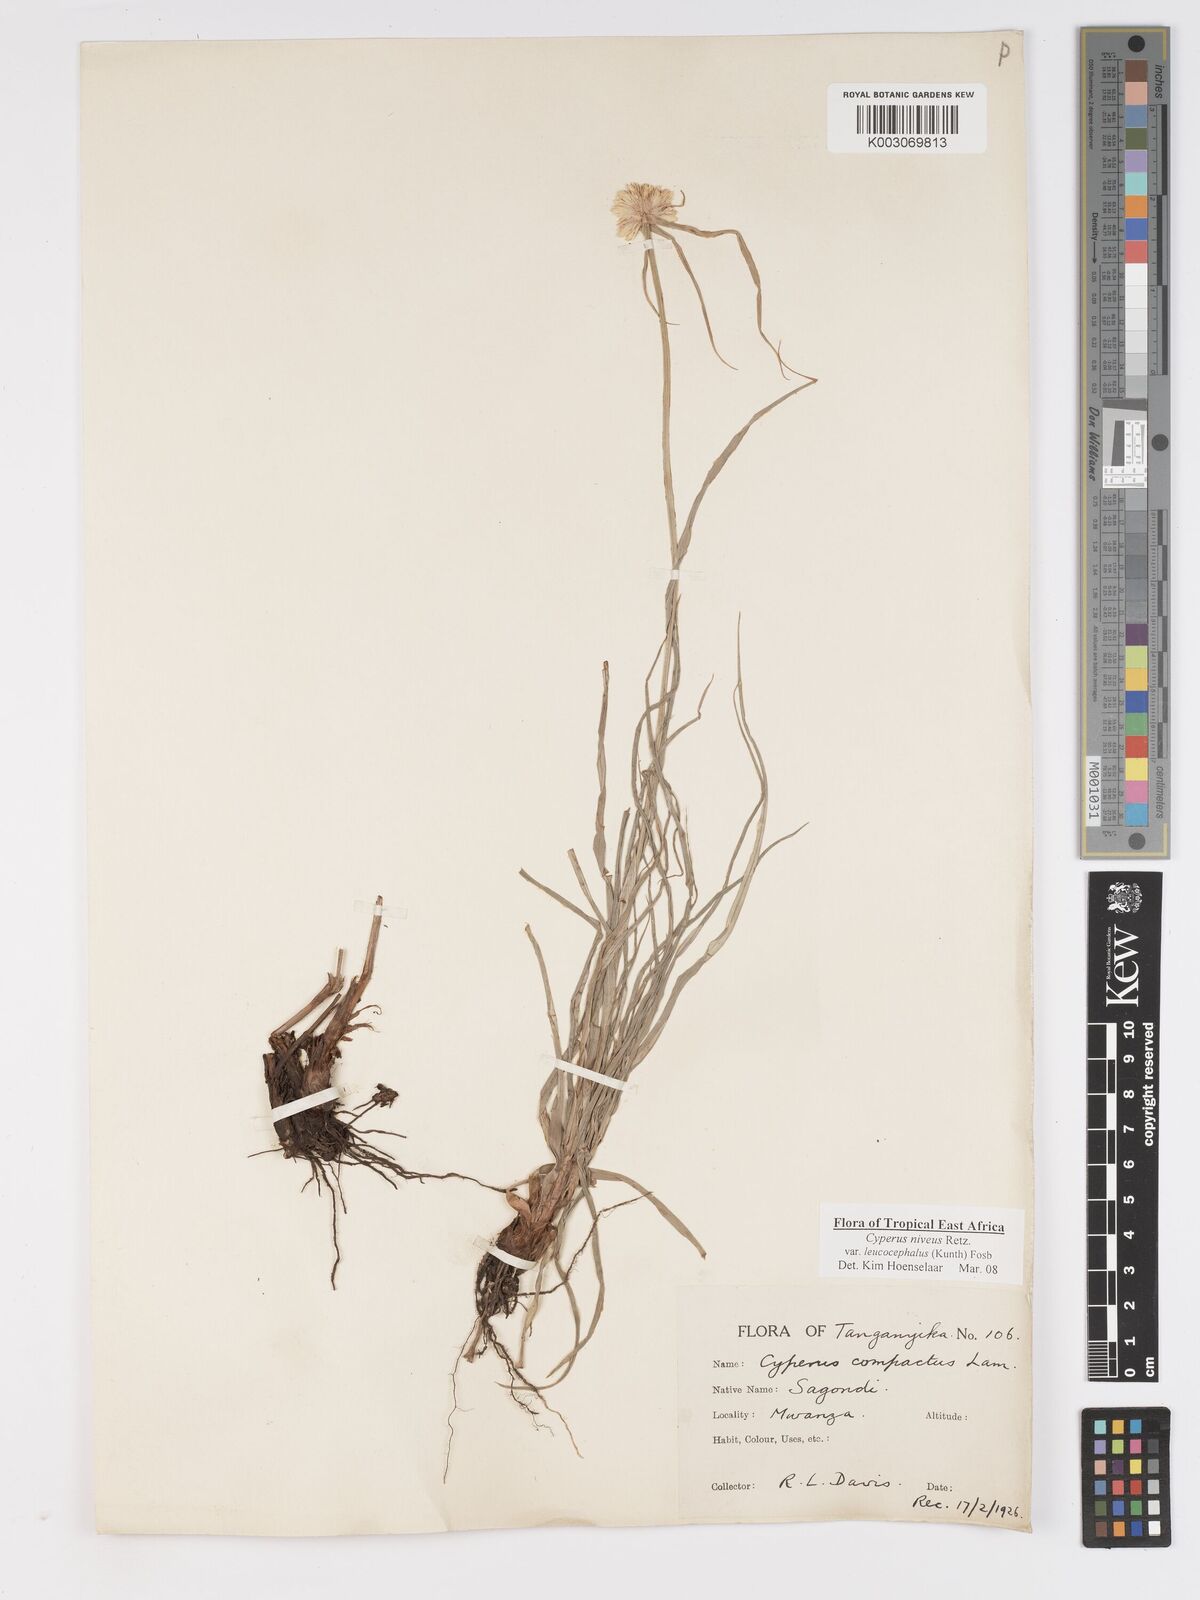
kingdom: Plantae
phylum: Tracheophyta
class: Liliopsida
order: Poales
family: Cyperaceae
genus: Cyperus
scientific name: Cyperus niveus
